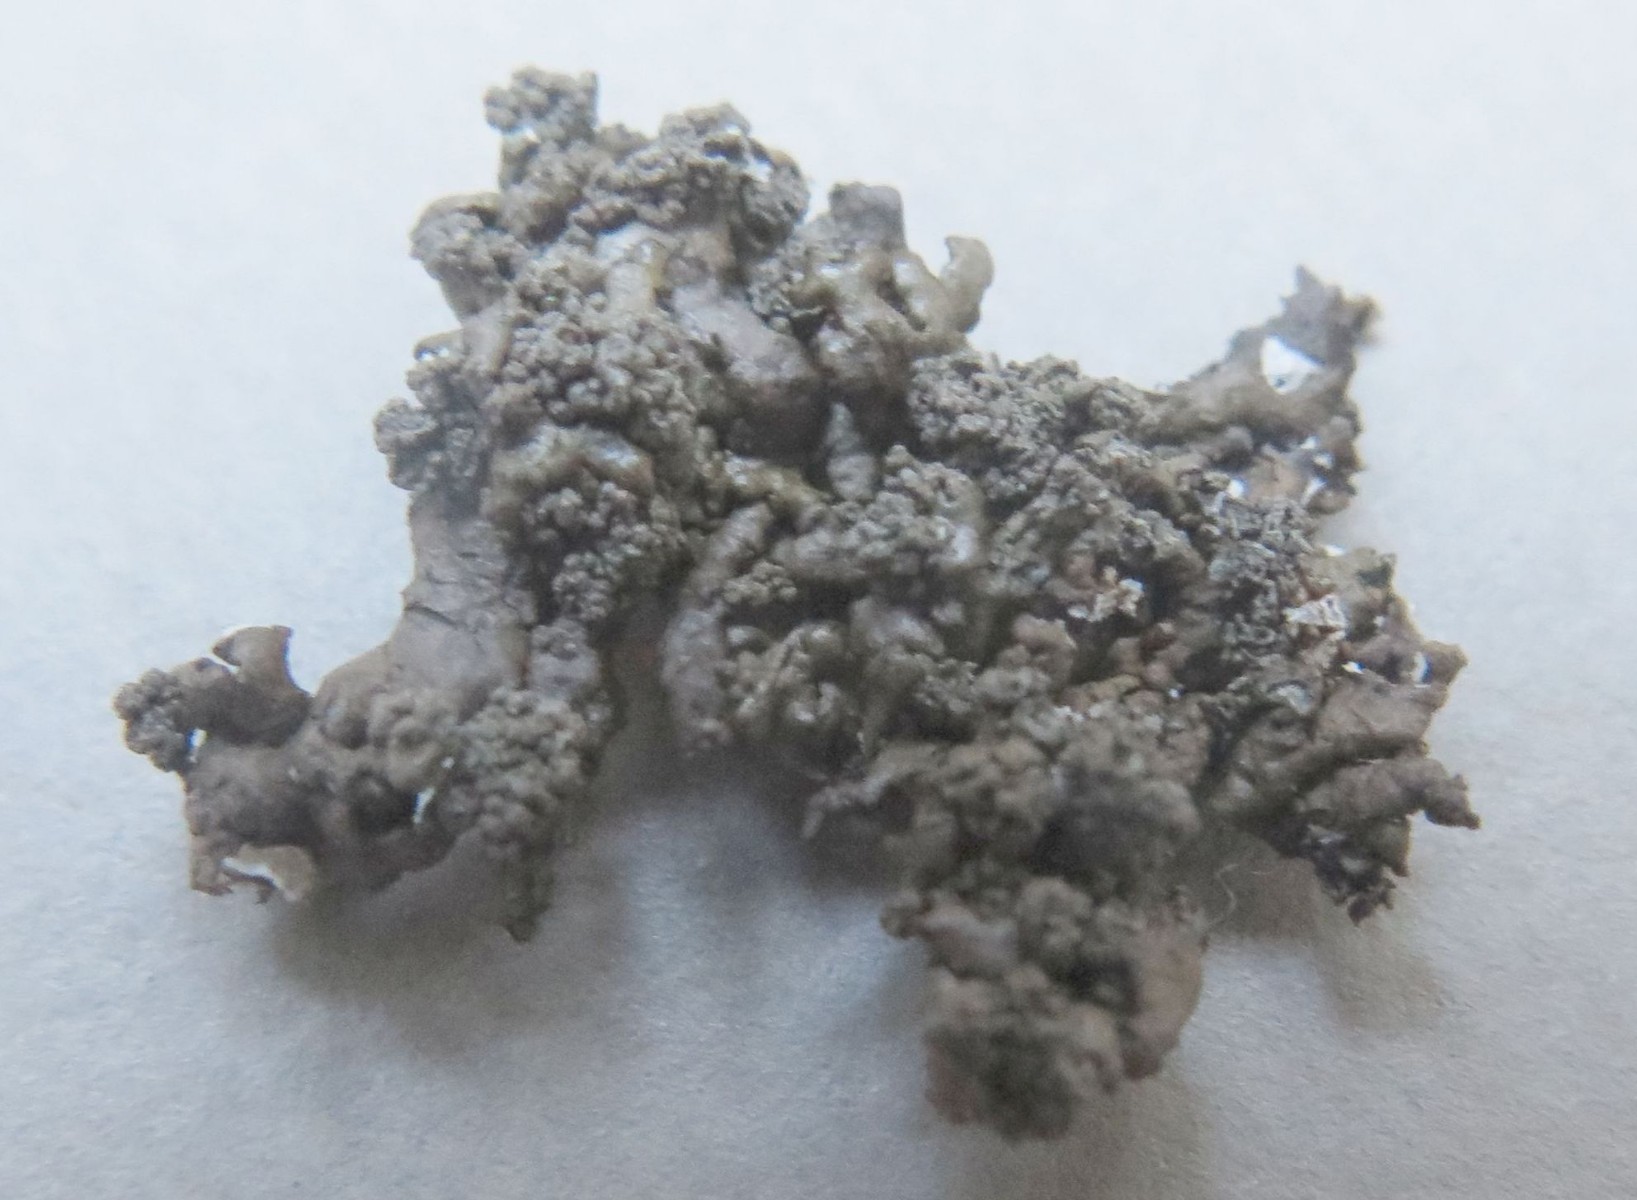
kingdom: Fungi
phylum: Ascomycota
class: Lecanoromycetes
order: Lecanorales
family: Parmeliaceae
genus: Xanthoparmelia
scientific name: Xanthoparmelia verruculifera
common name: småknoppet skållav
